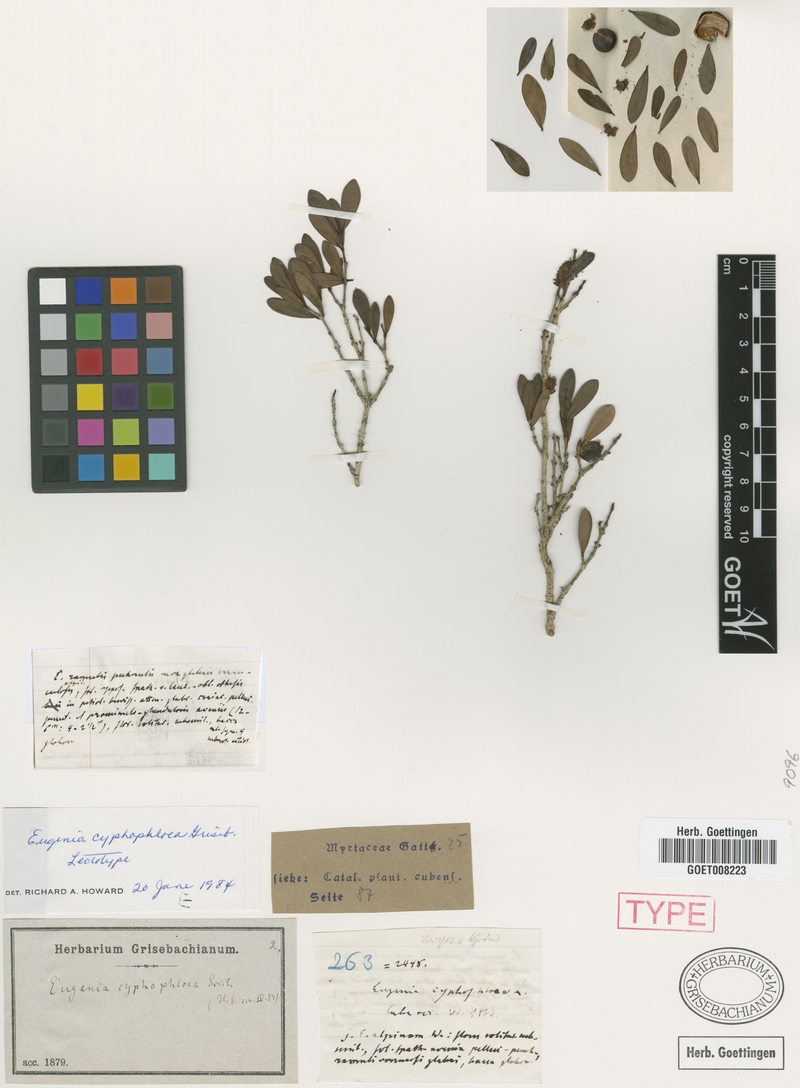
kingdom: Plantae
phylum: Tracheophyta
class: Magnoliopsida
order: Myrtales
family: Myrtaceae
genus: Eugenia
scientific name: Eugenia cyphophloea
